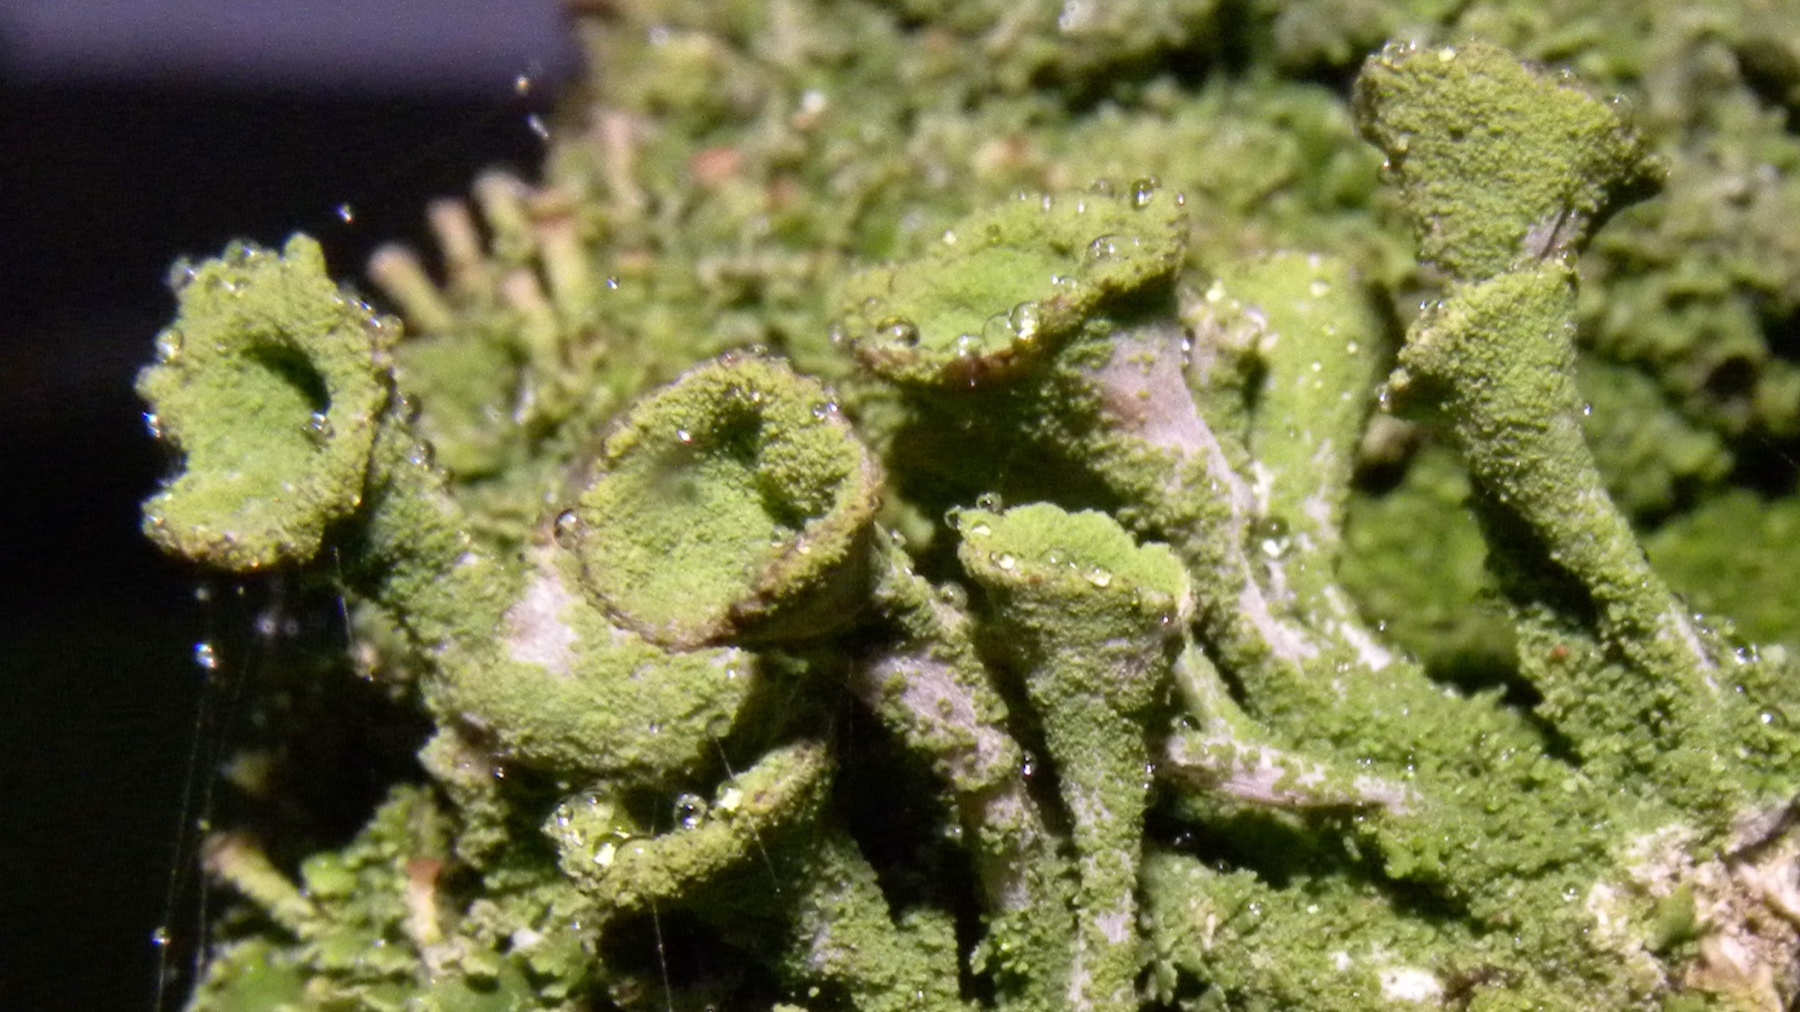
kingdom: Fungi
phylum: Ascomycota
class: Lecanoromycetes
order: Lecanorales
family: Cladoniaceae
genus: Cladonia
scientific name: Cladonia
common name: brungrøn bægerlav
